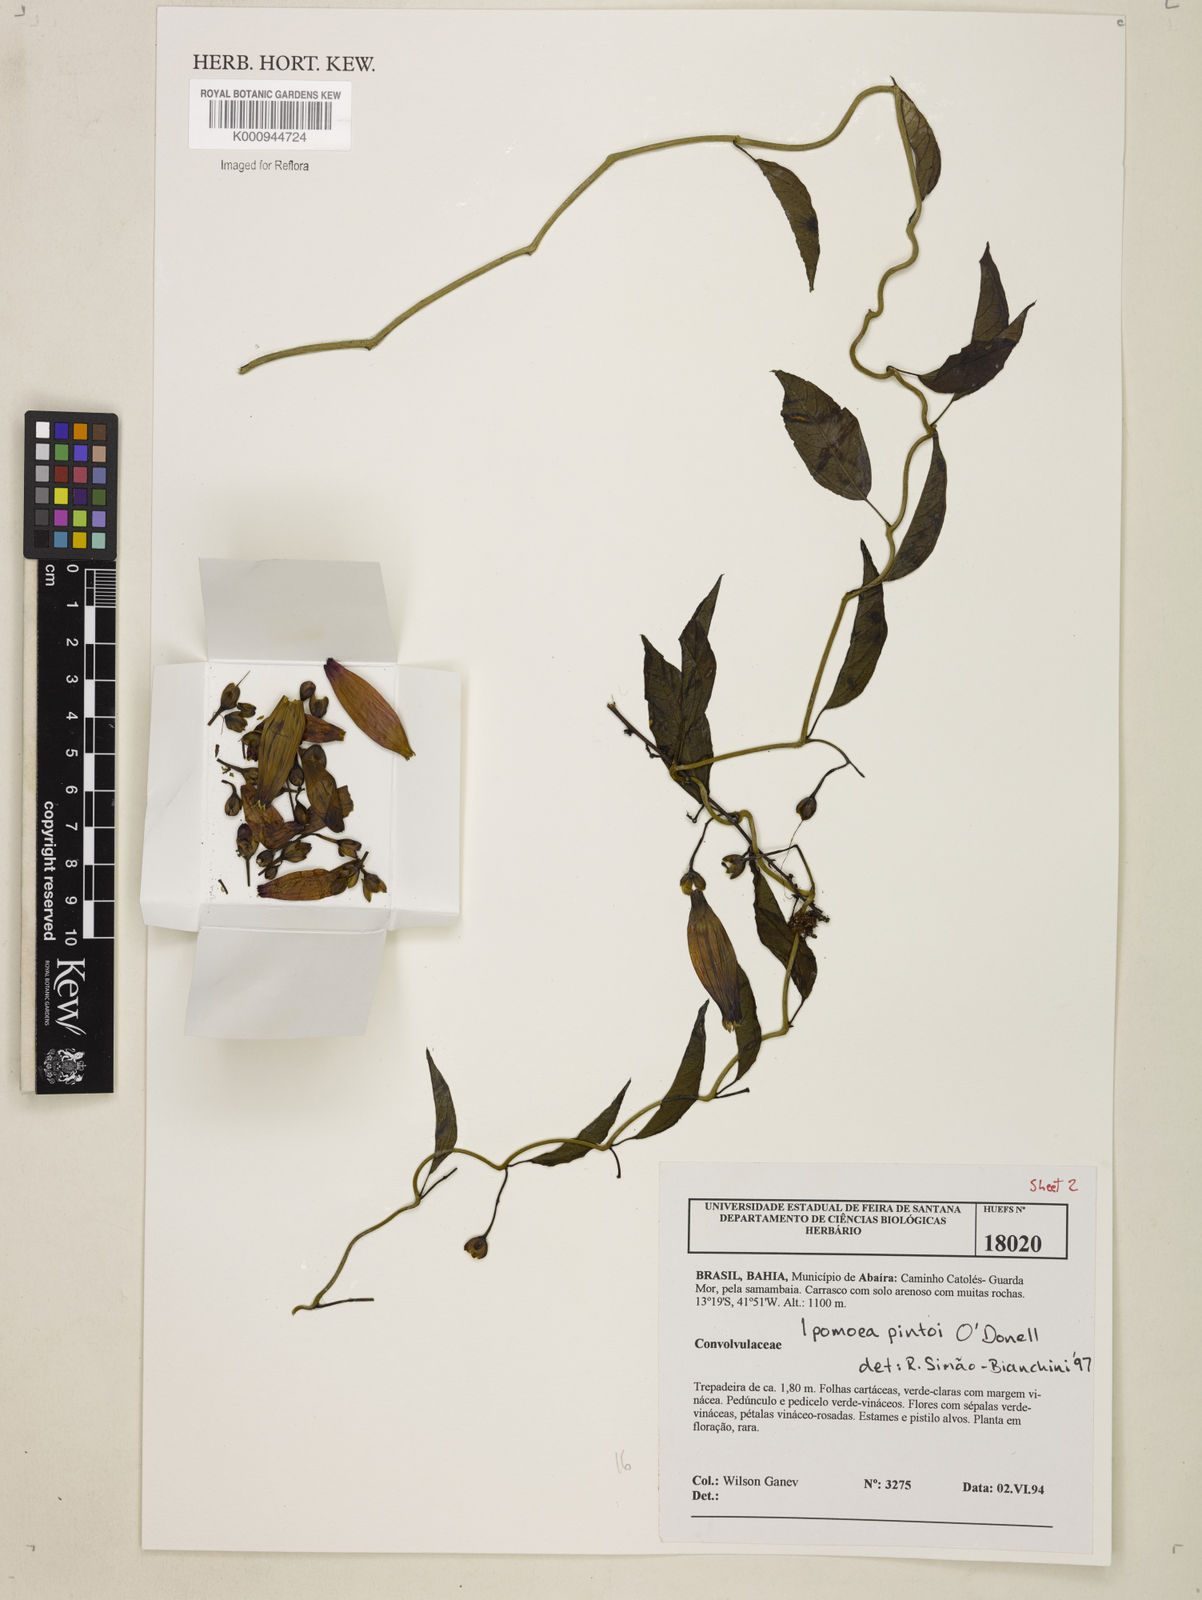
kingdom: Plantae
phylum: Tracheophyta
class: Magnoliopsida
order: Solanales
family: Convolvulaceae
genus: Ipomoea
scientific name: Ipomoea pintoi
